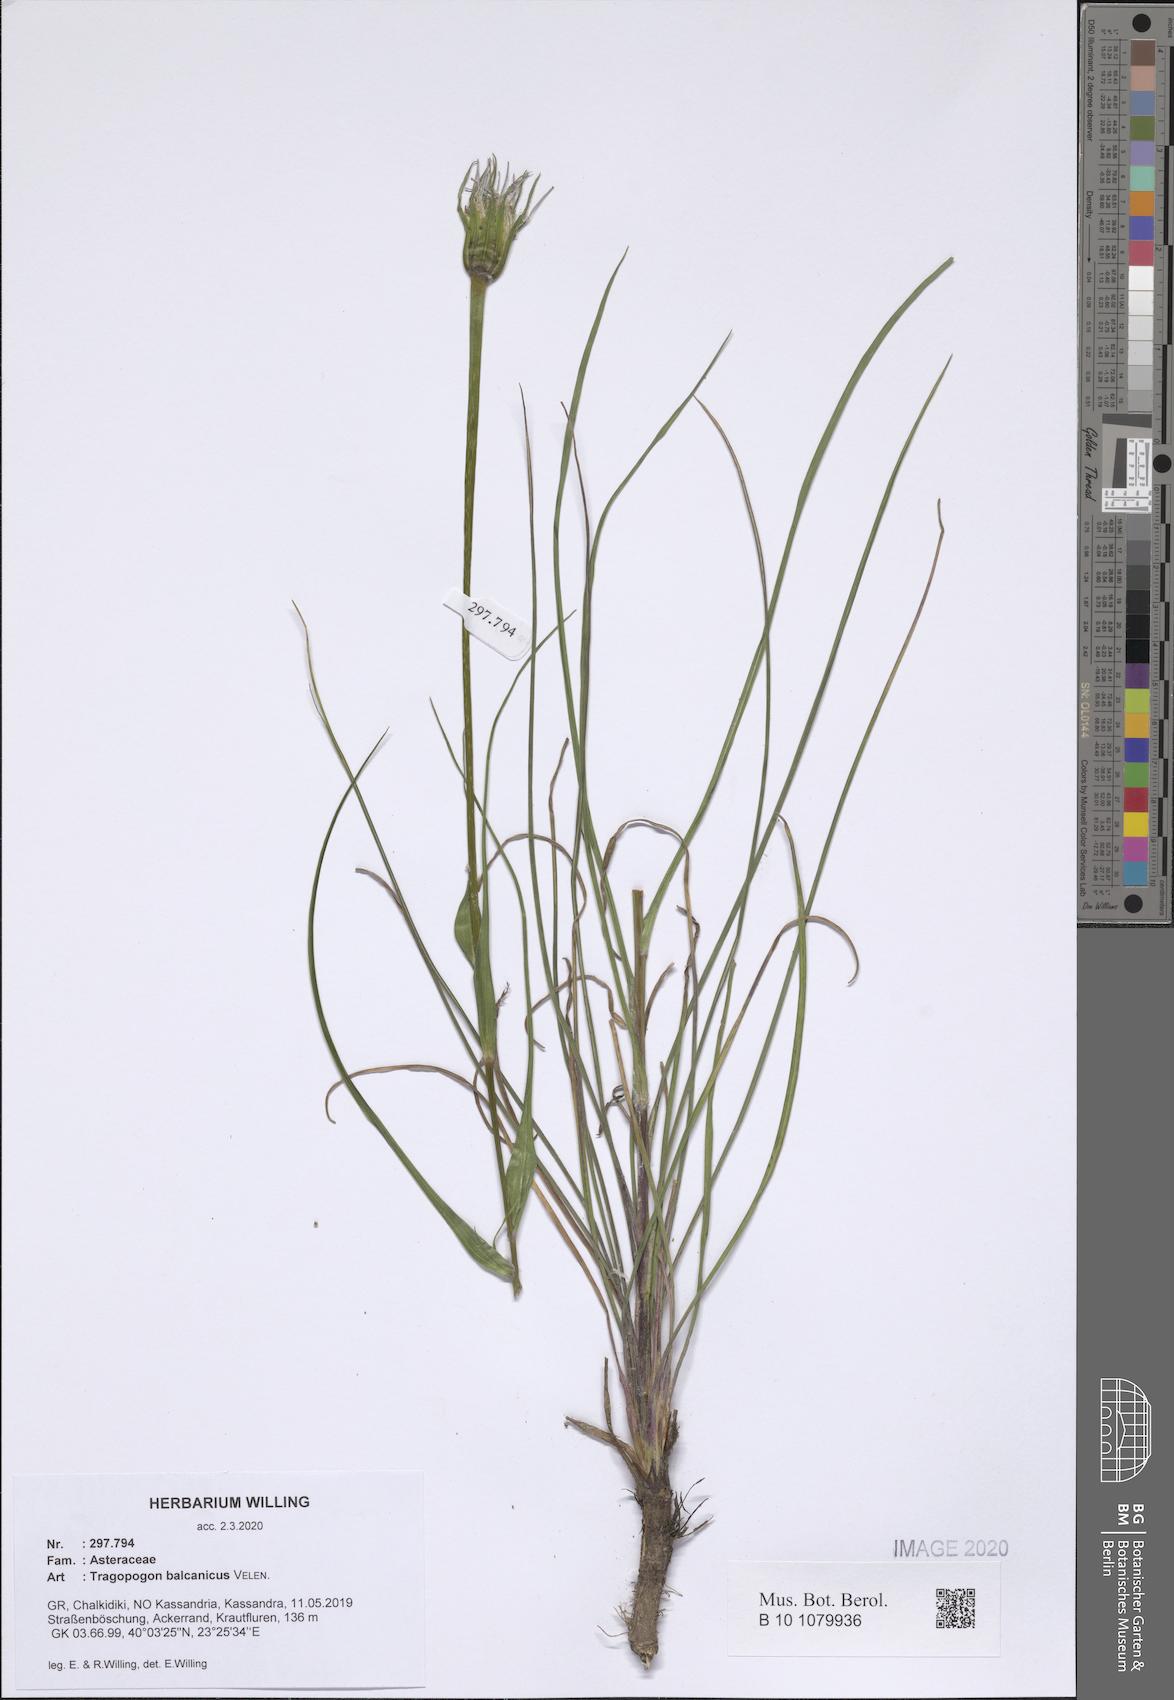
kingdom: Plantae
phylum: Tracheophyta
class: Magnoliopsida
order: Asterales
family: Asteraceae
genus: Tragopogon
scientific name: Tragopogon balcanicus
